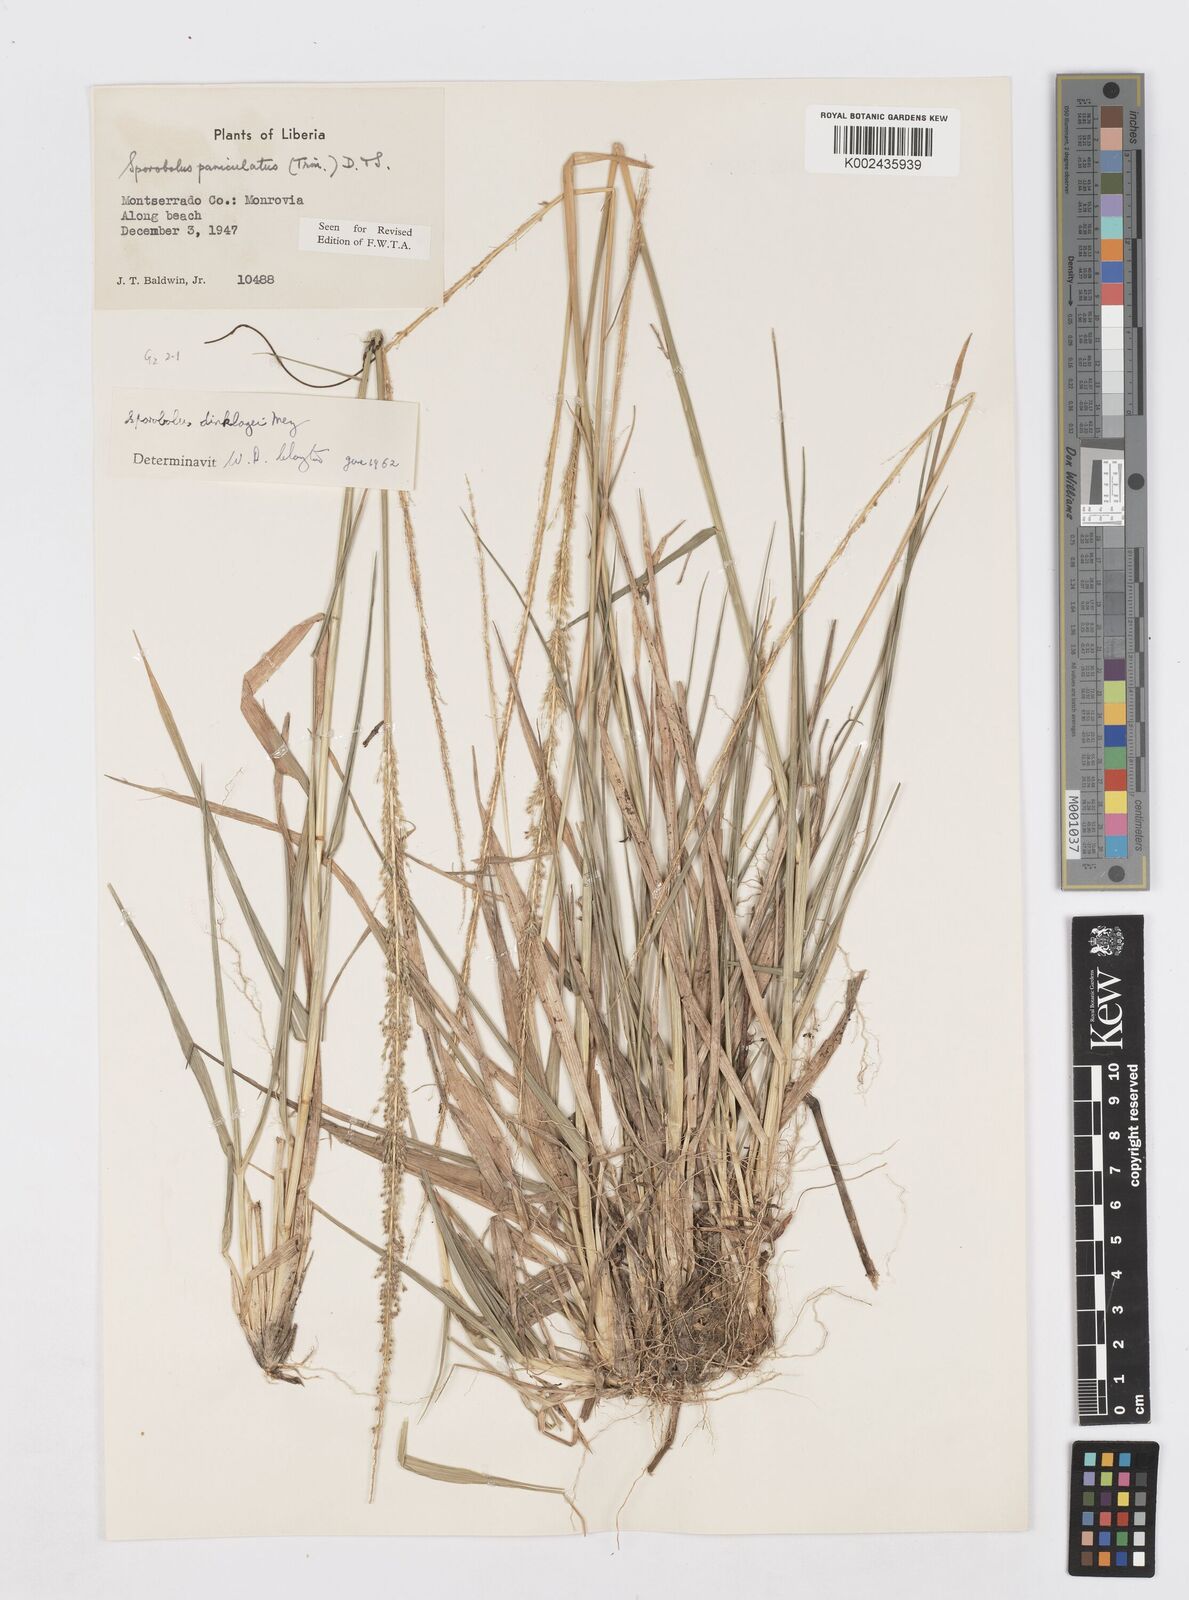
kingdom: Plantae
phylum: Tracheophyta
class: Liliopsida
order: Poales
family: Poaceae
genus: Sporobolus
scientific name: Sporobolus dinklagei
